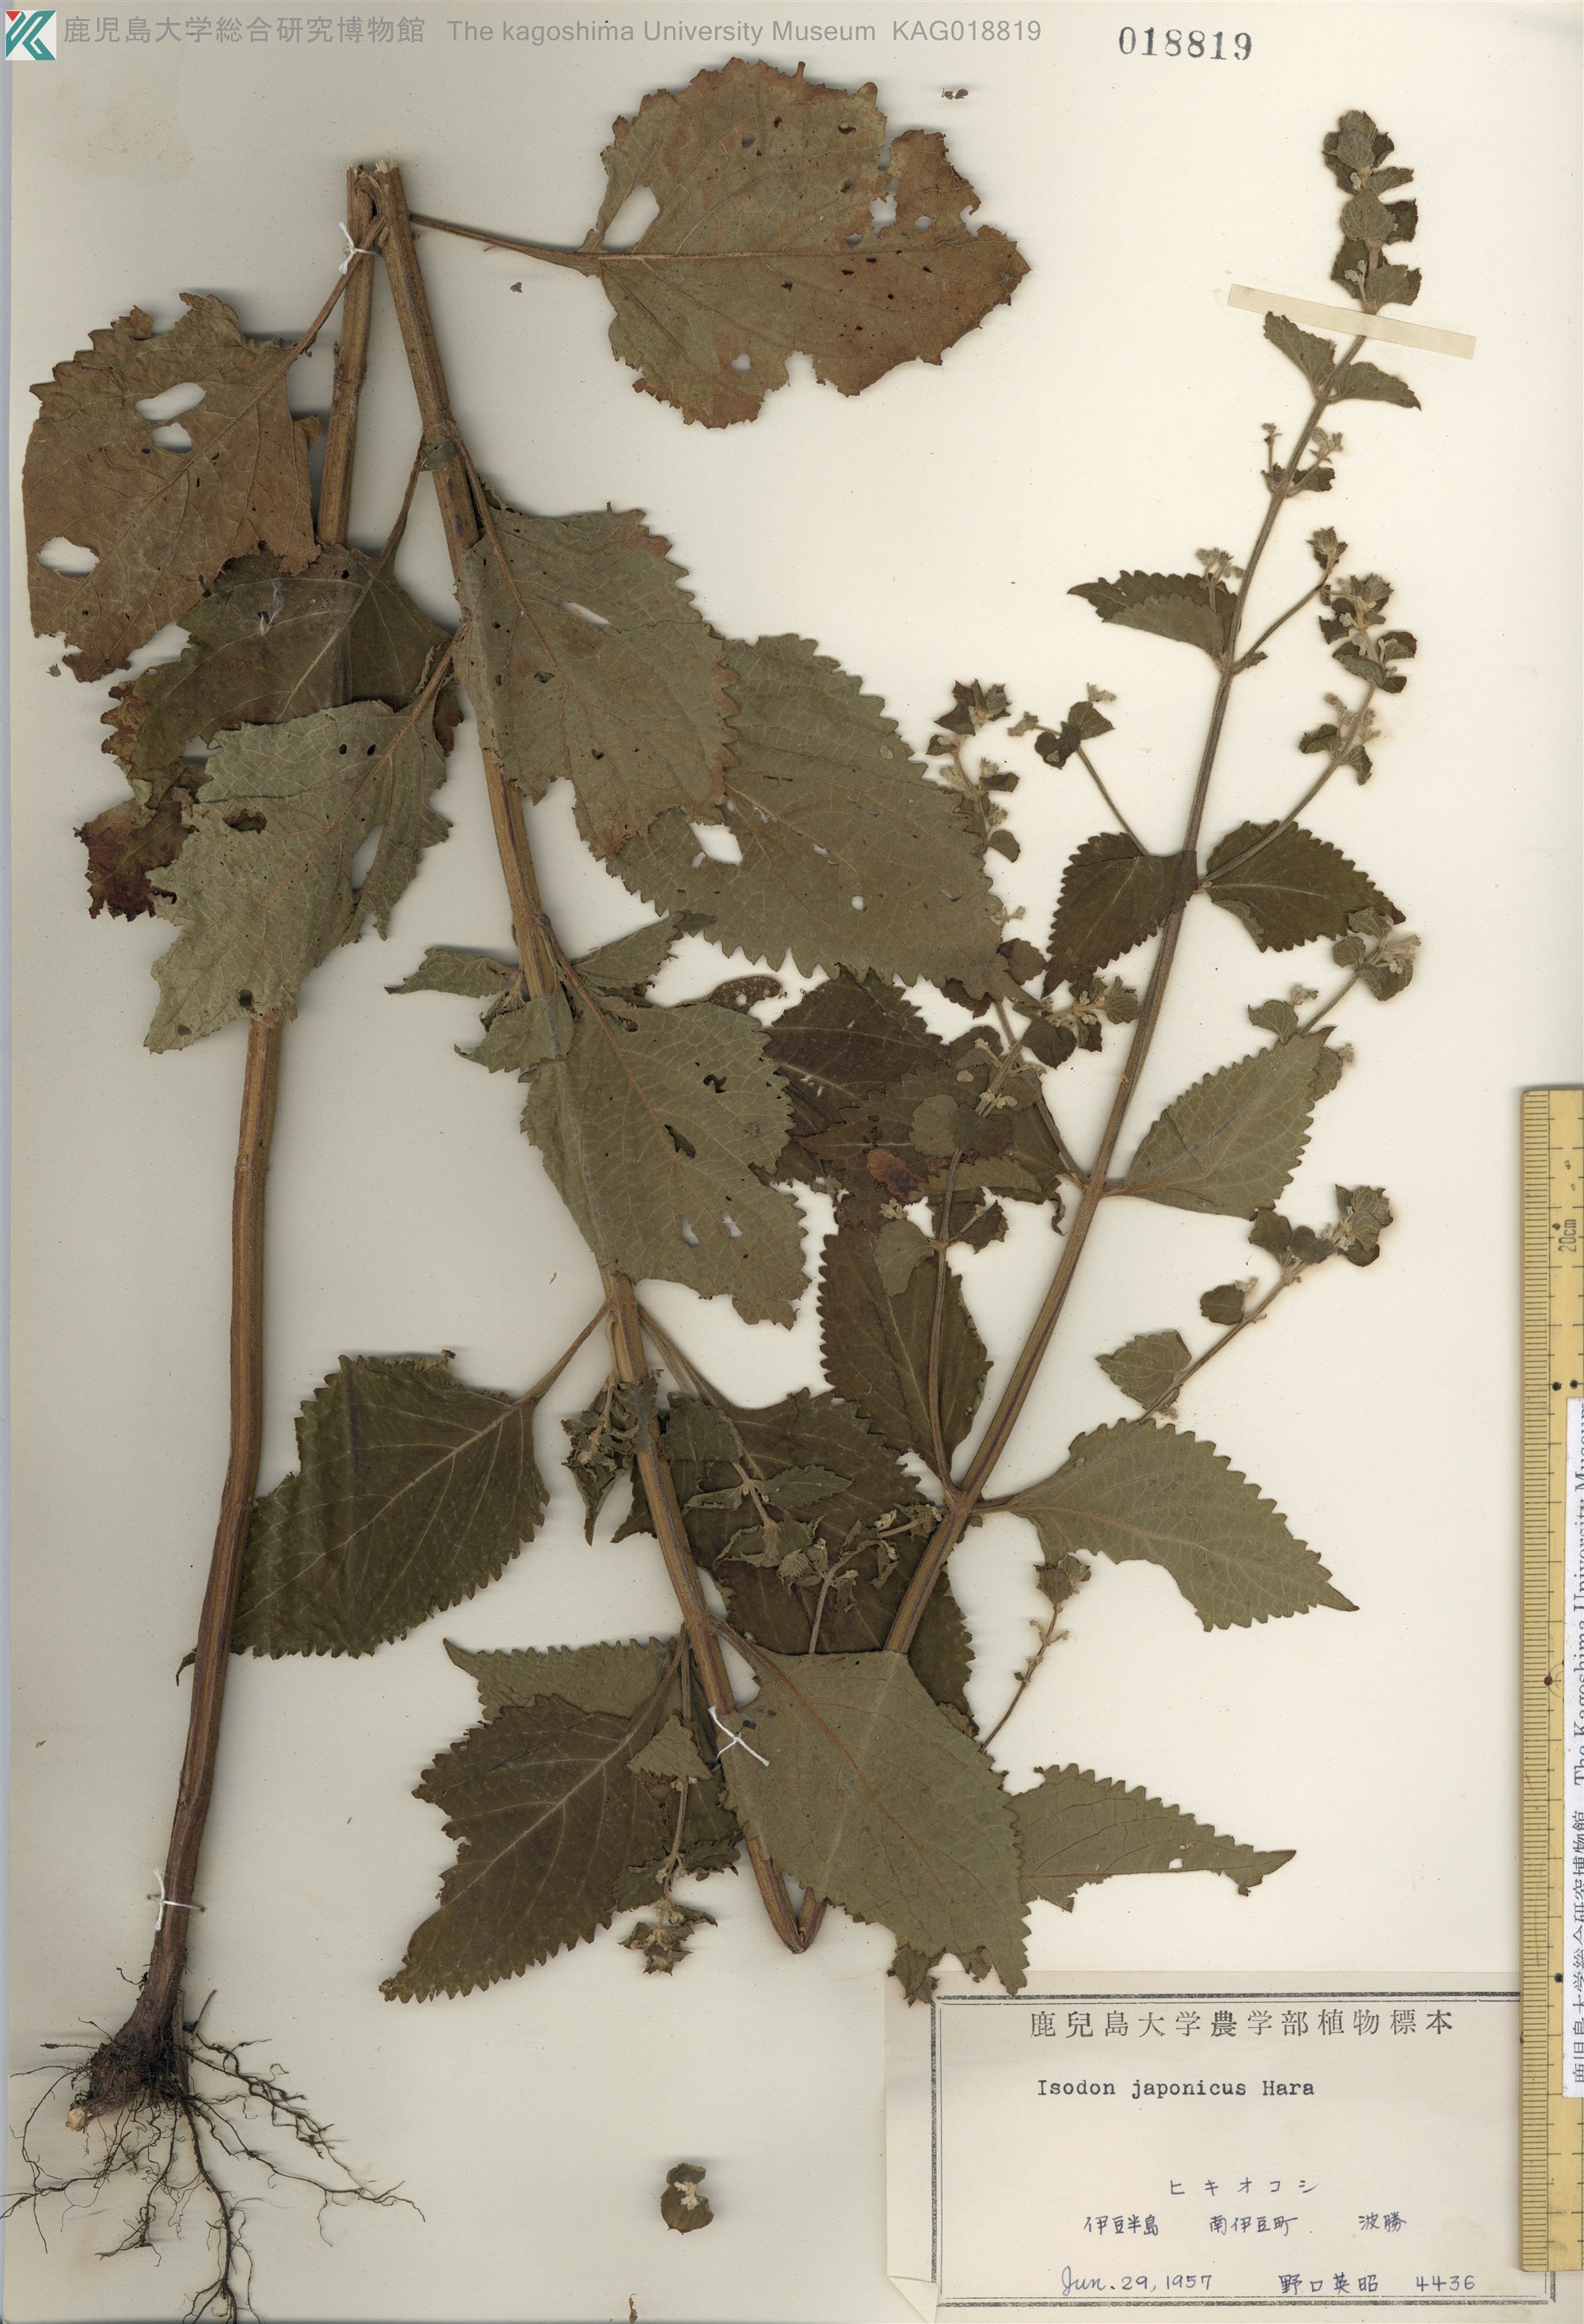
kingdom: Plantae
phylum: Tracheophyta
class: Magnoliopsida
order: Lamiales
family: Lamiaceae
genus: Isodon
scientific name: Isodon japonicus
